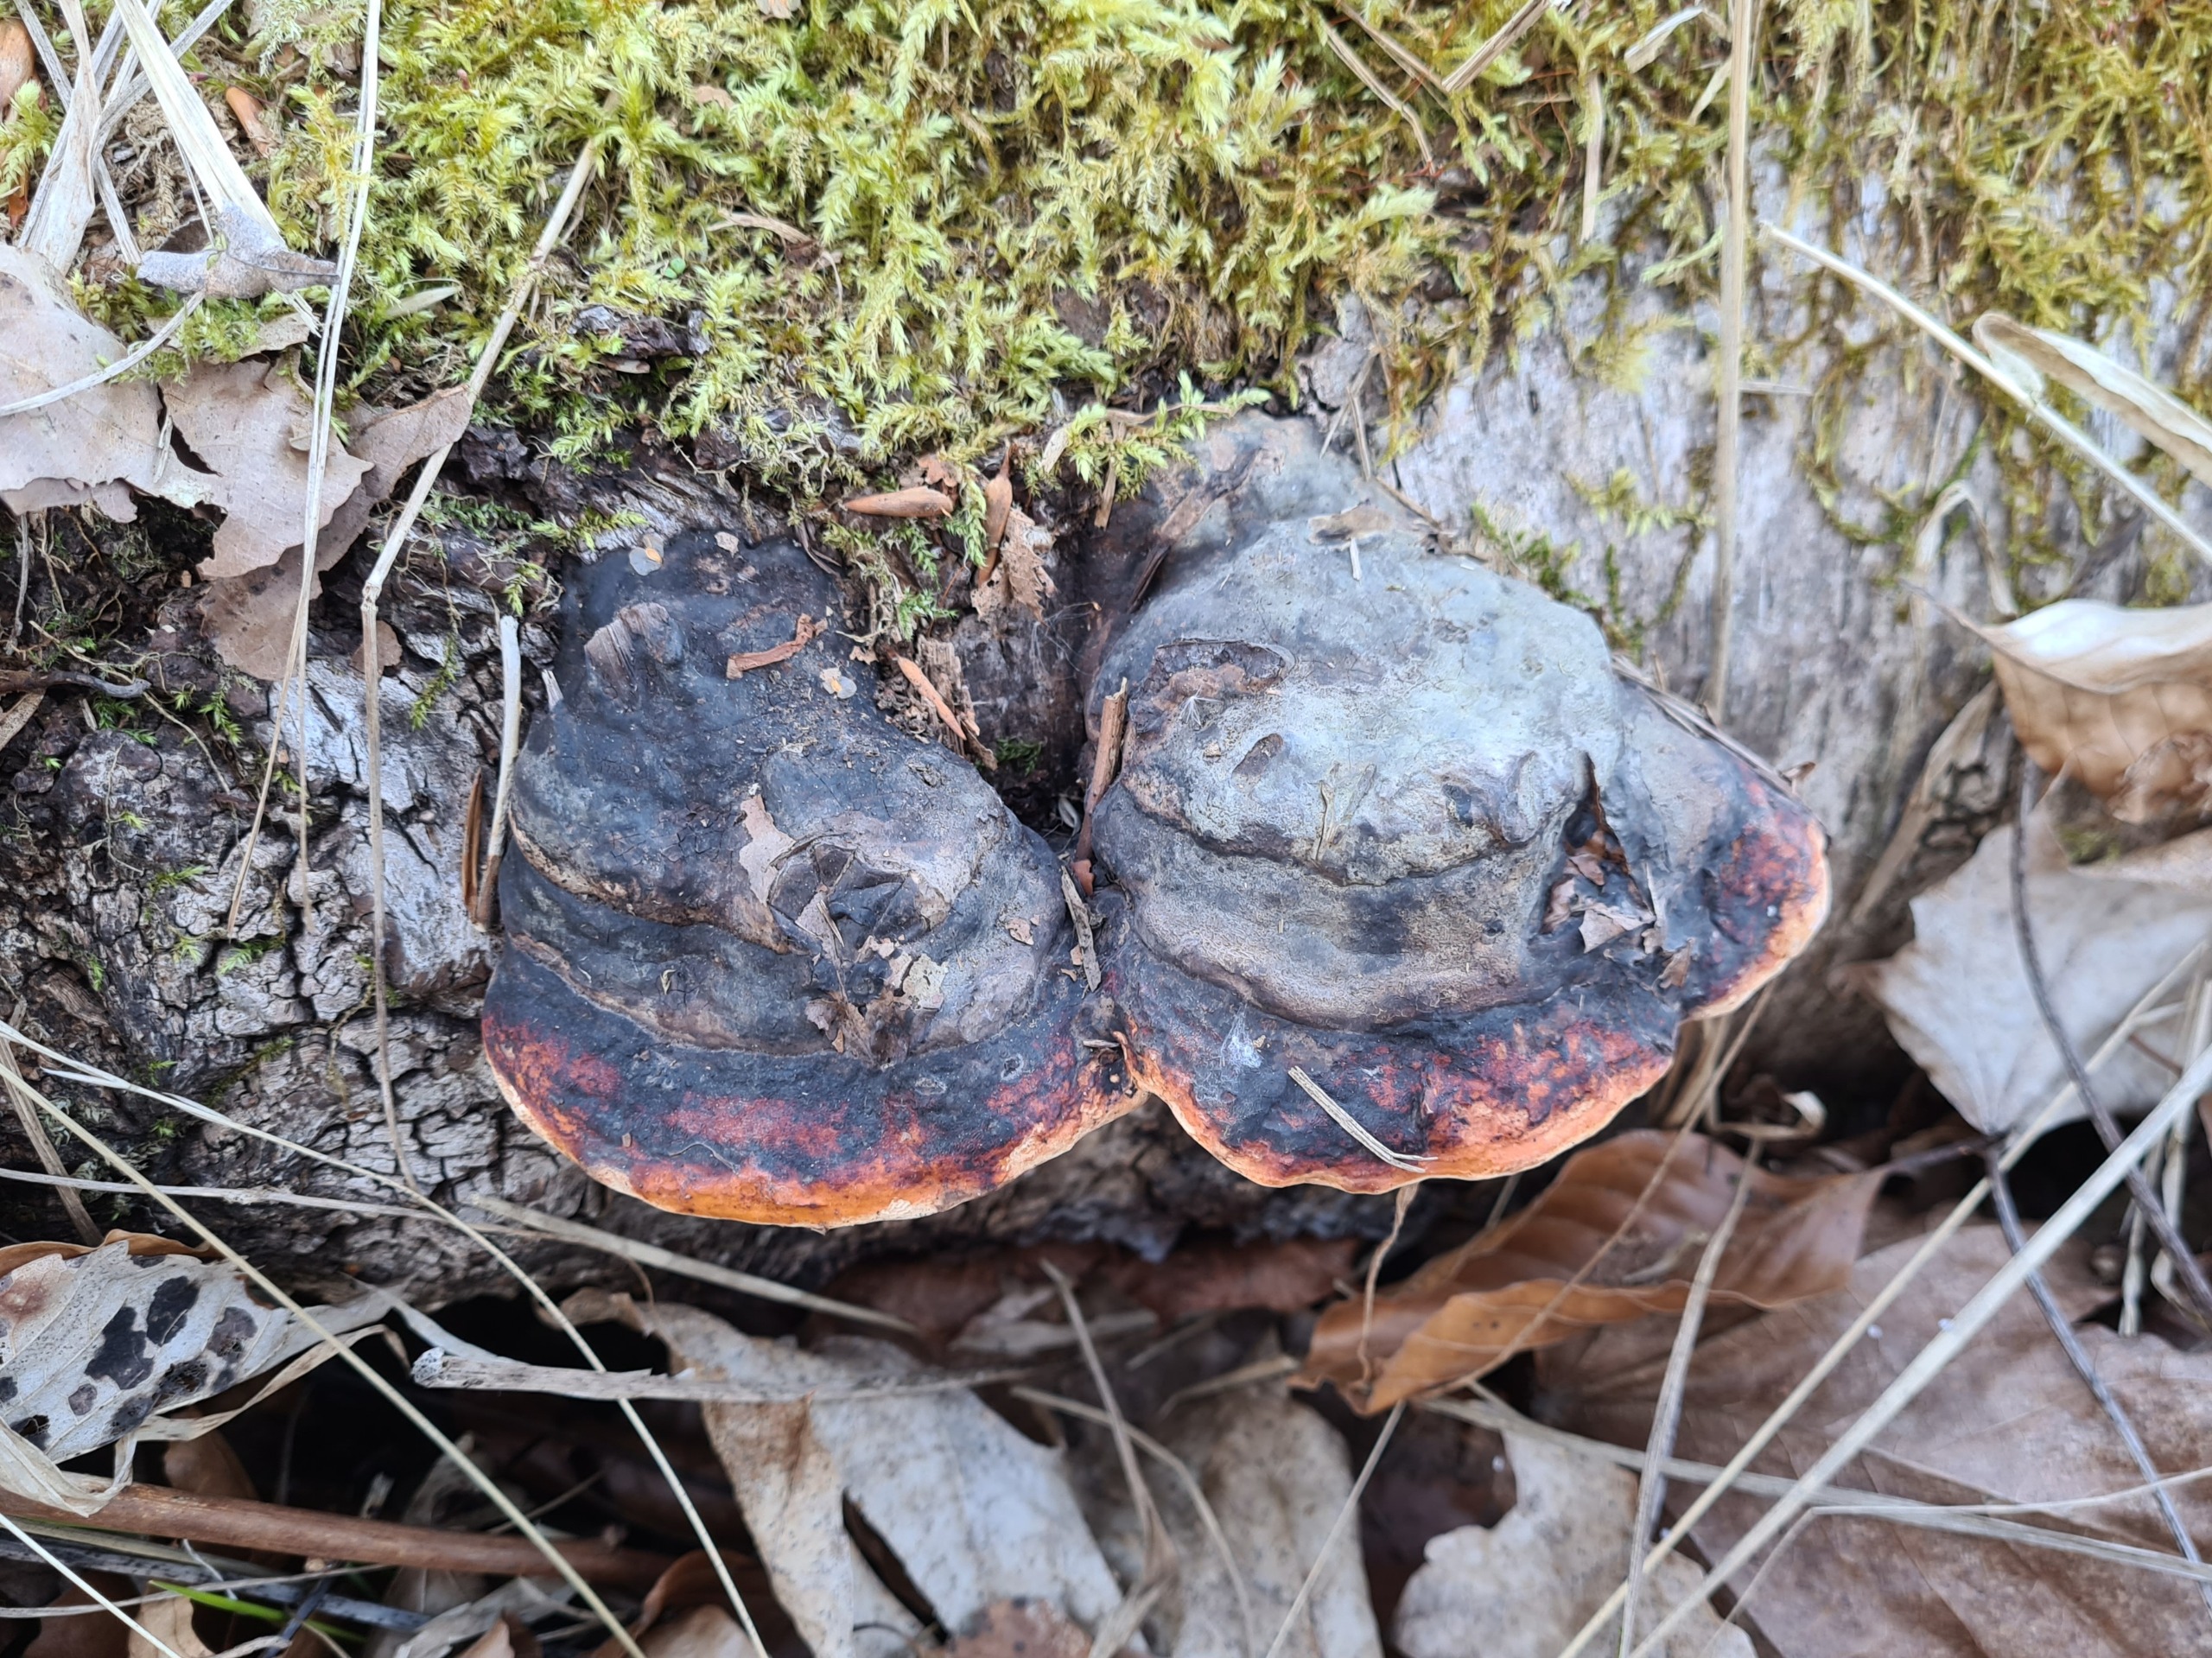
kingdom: Fungi
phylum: Basidiomycota
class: Agaricomycetes
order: Polyporales
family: Fomitopsidaceae
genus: Fomitopsis
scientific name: Fomitopsis pinicola
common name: Randbæltet hovporesvamp
